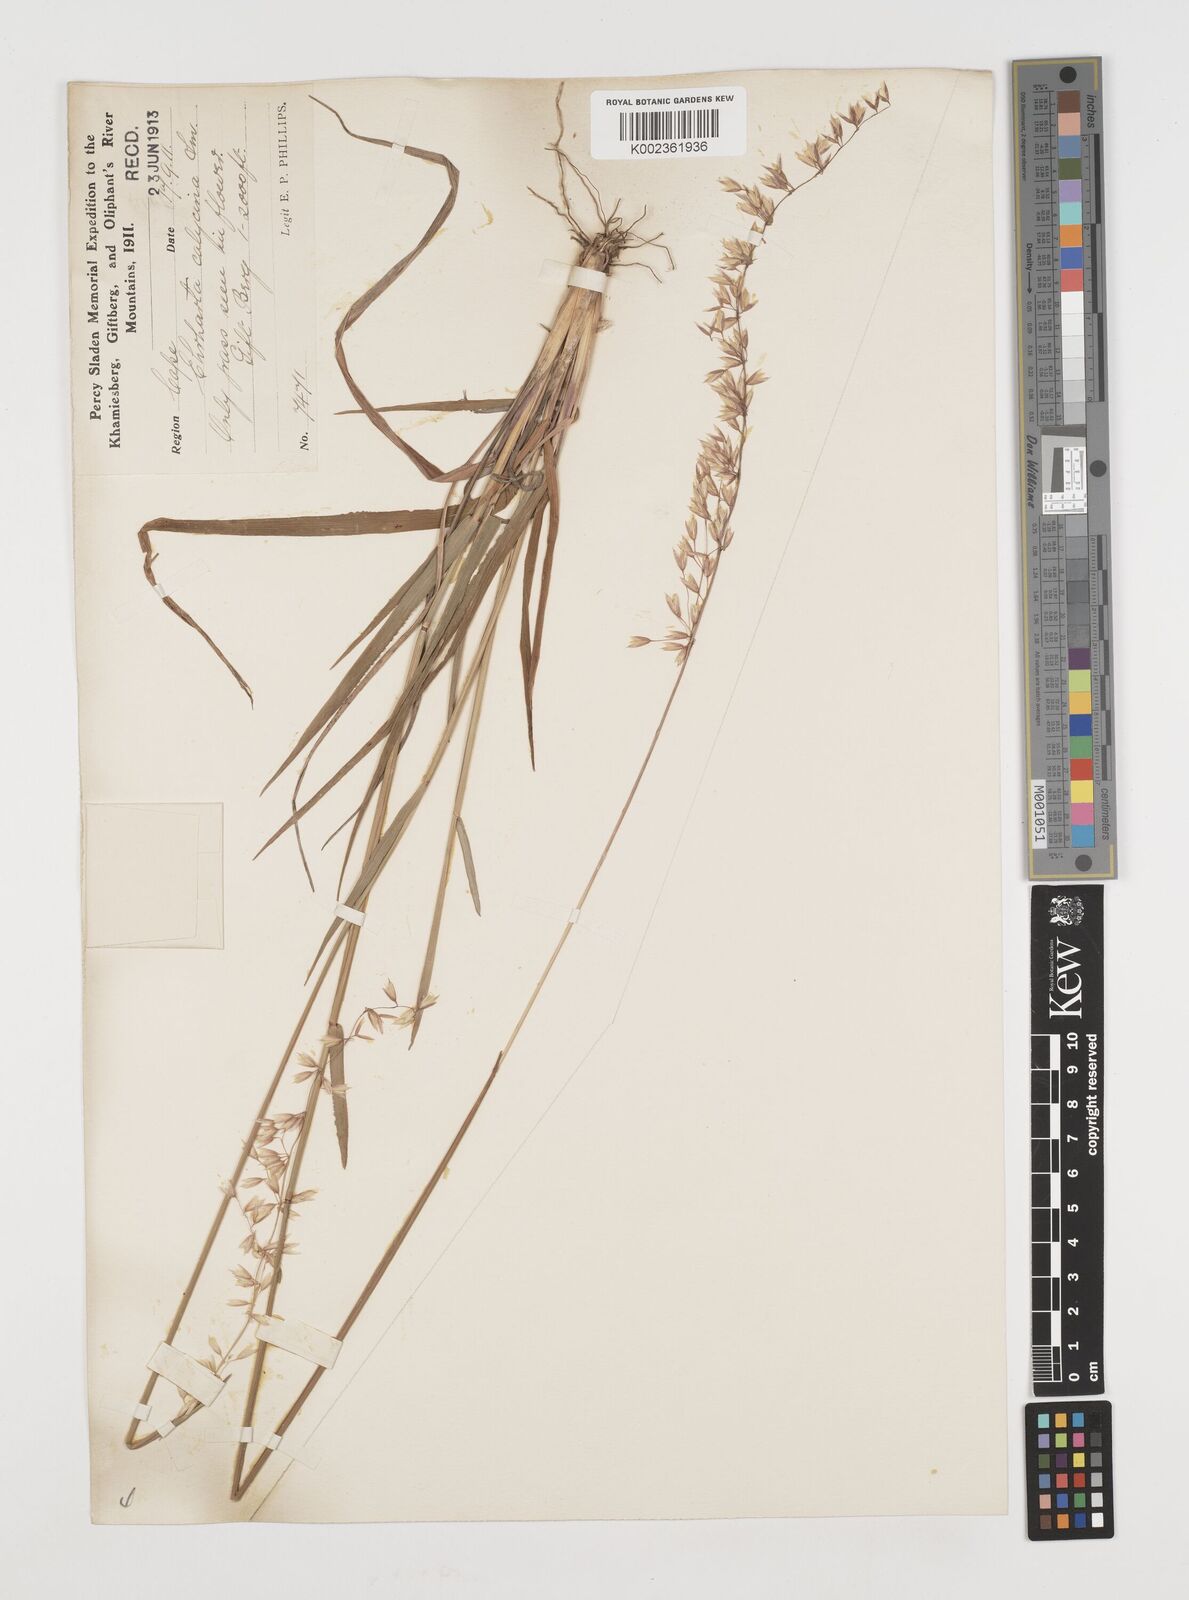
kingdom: Plantae
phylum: Tracheophyta
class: Liliopsida
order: Poales
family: Poaceae
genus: Ehrharta
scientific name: Ehrharta calycina
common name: Perennial veldtgrass
